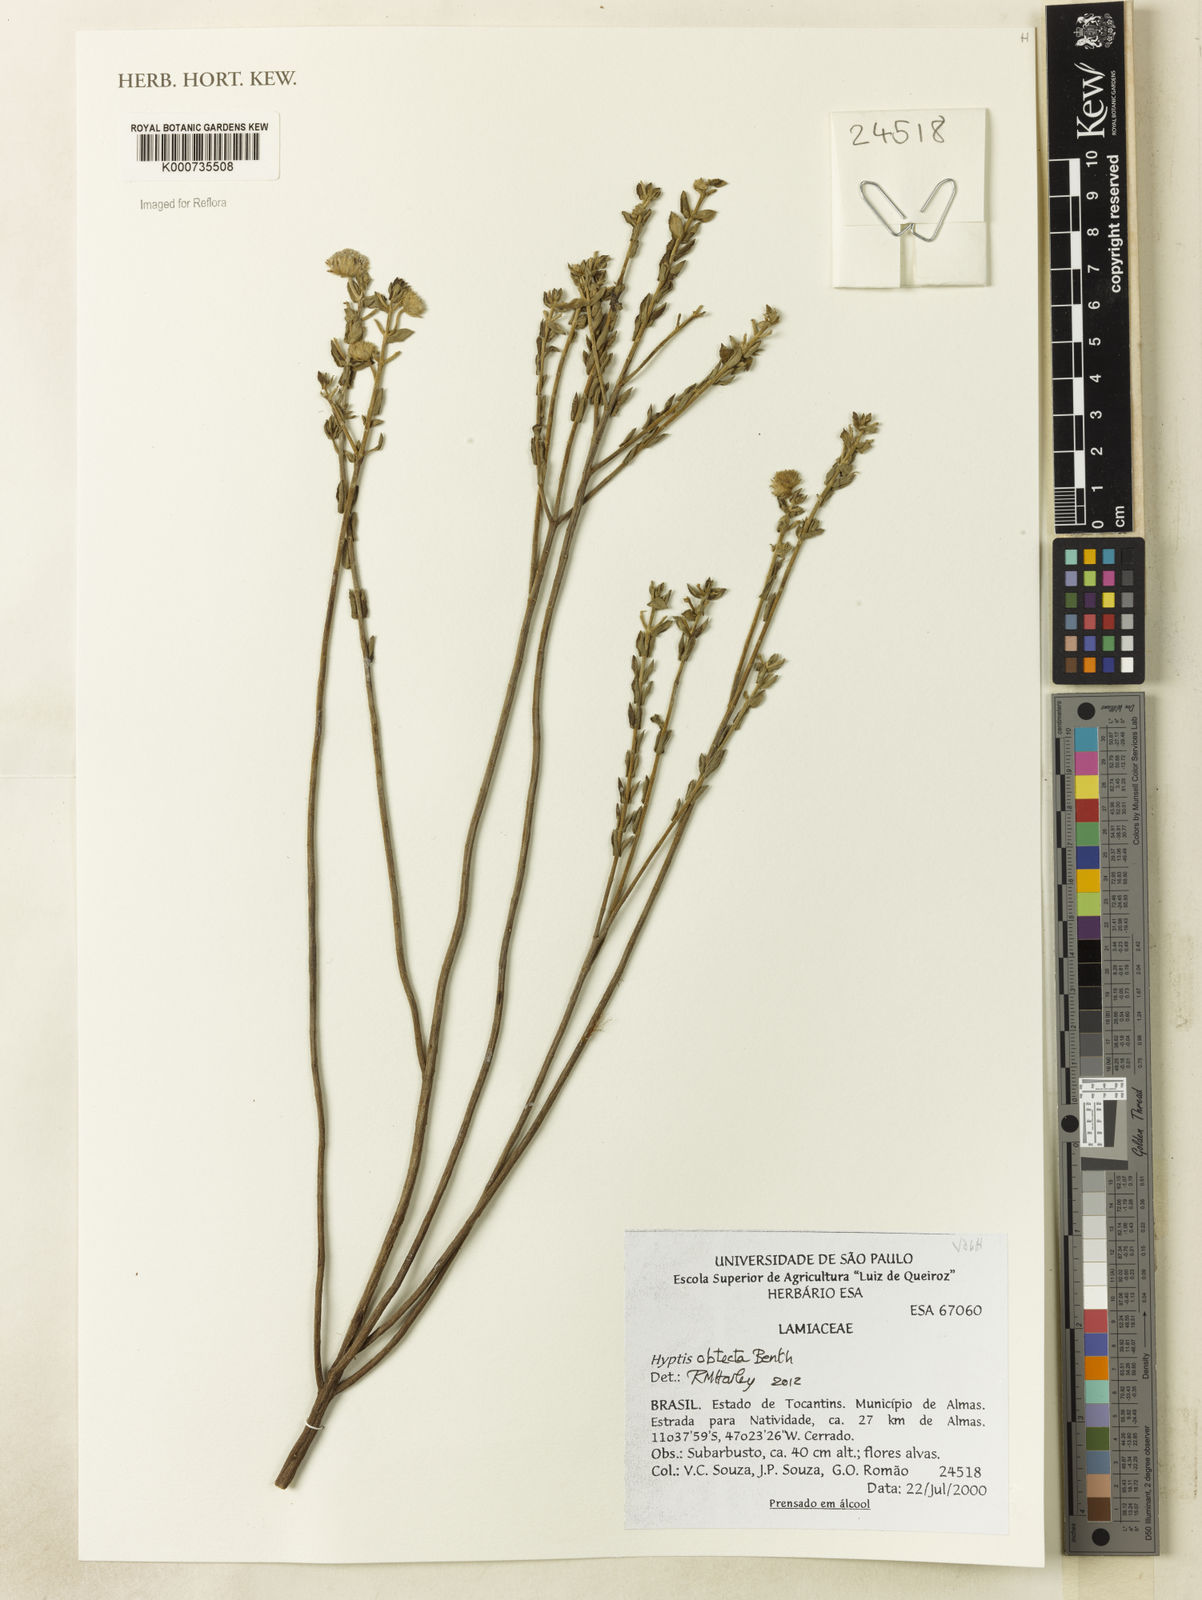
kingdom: Plantae
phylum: Tracheophyta
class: Magnoliopsida
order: Lamiales
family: Lamiaceae
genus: Hyptis
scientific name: Hyptis obtecta
